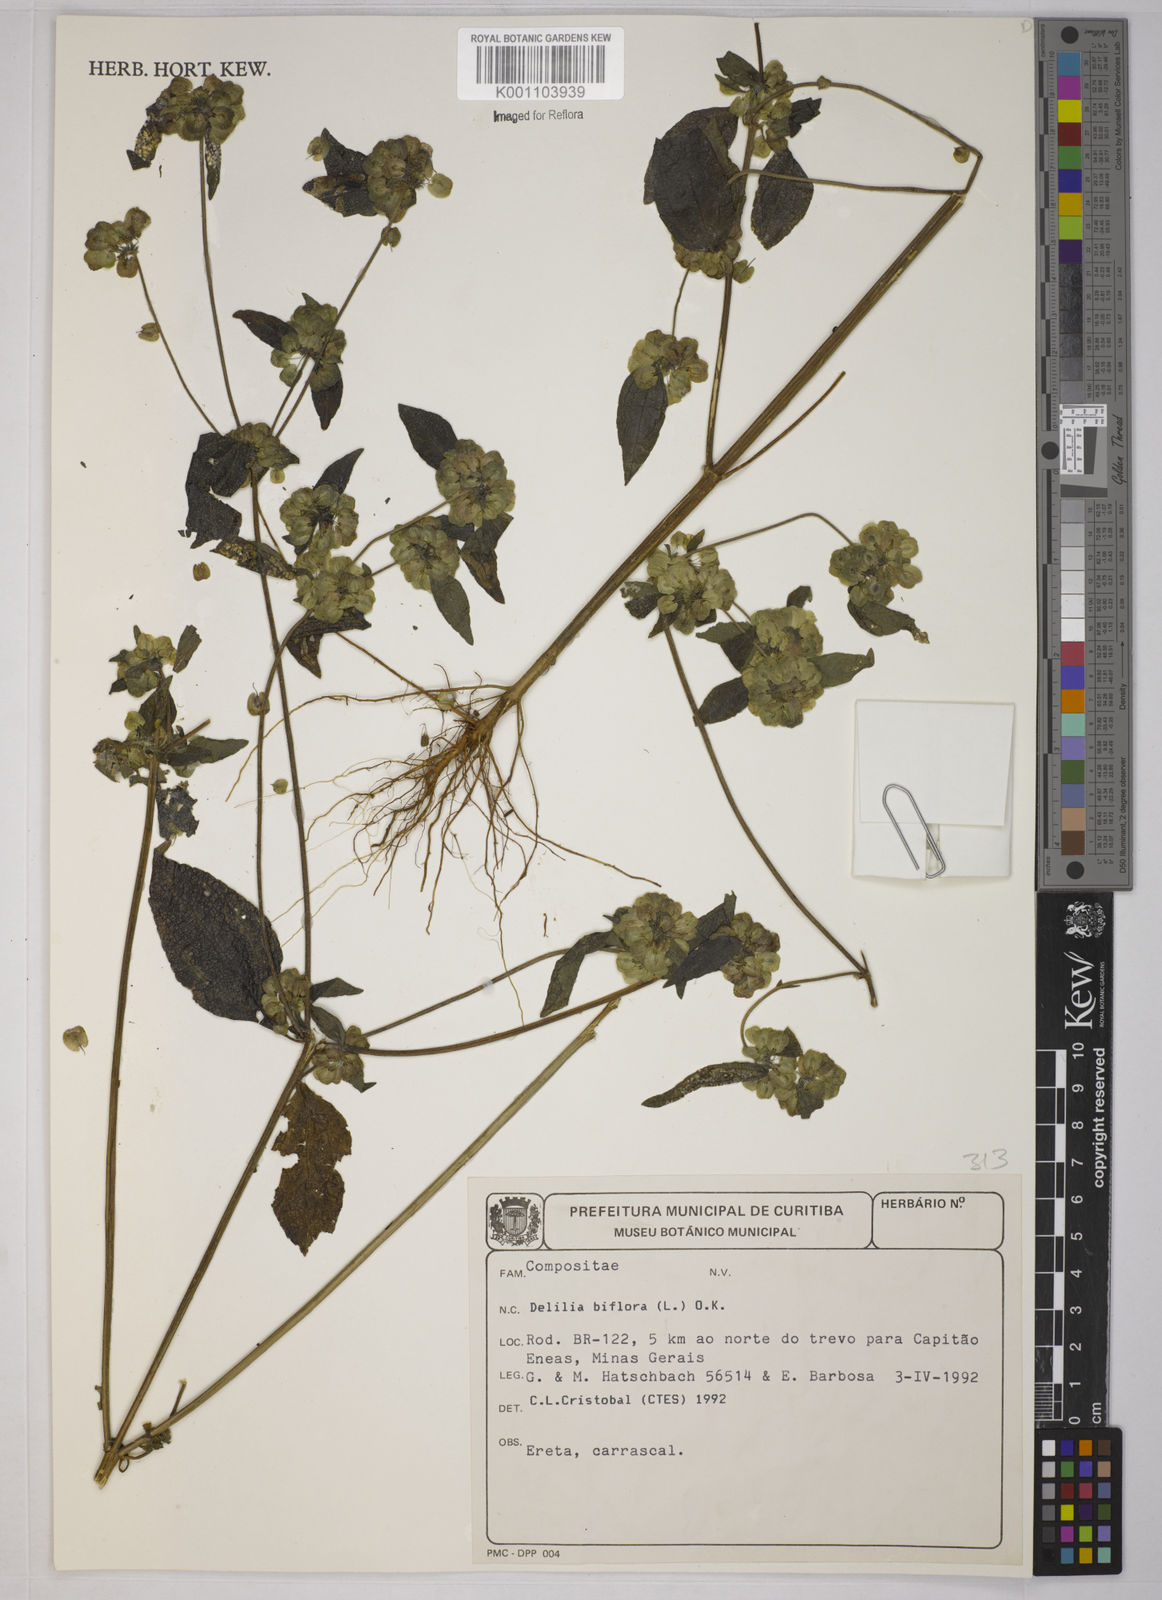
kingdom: Plantae
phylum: Tracheophyta
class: Magnoliopsida
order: Asterales
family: Asteraceae
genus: Delilia
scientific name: Delilia biflora
